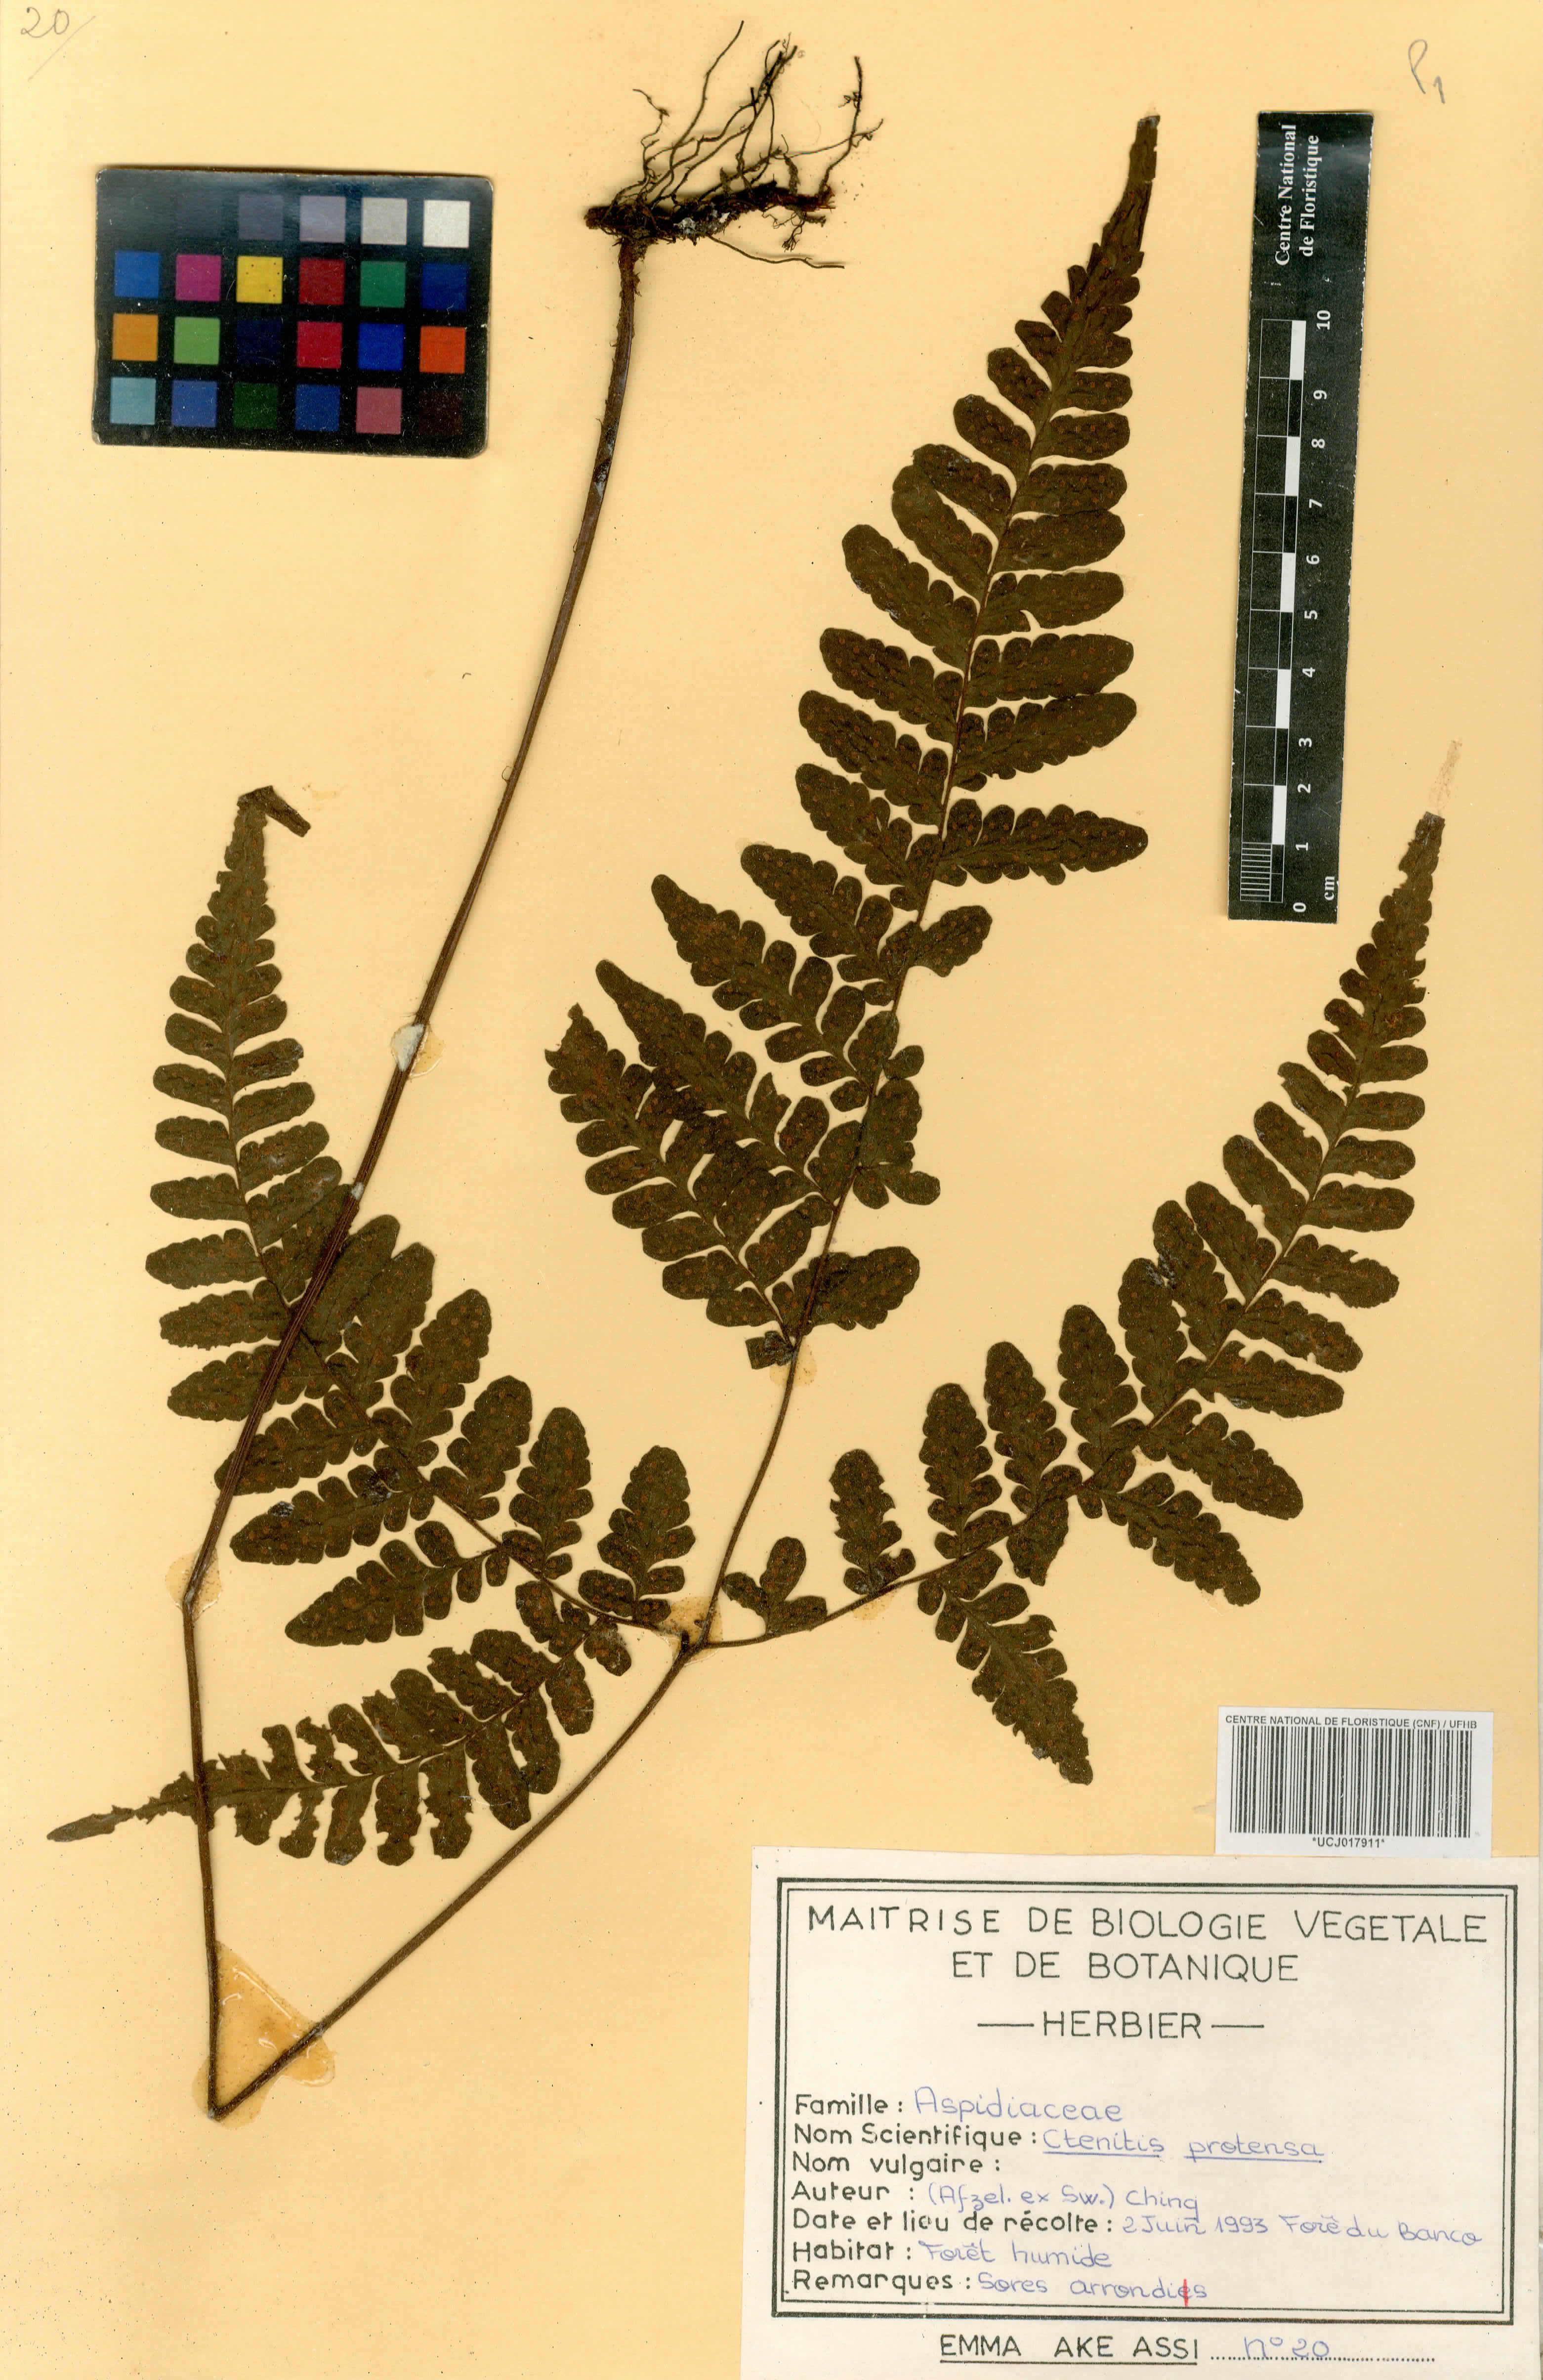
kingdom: Plantae
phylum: Tracheophyta
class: Polypodiopsida
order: Polypodiales
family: Tectariaceae
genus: Triplophyllum
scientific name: Triplophyllum protensum
